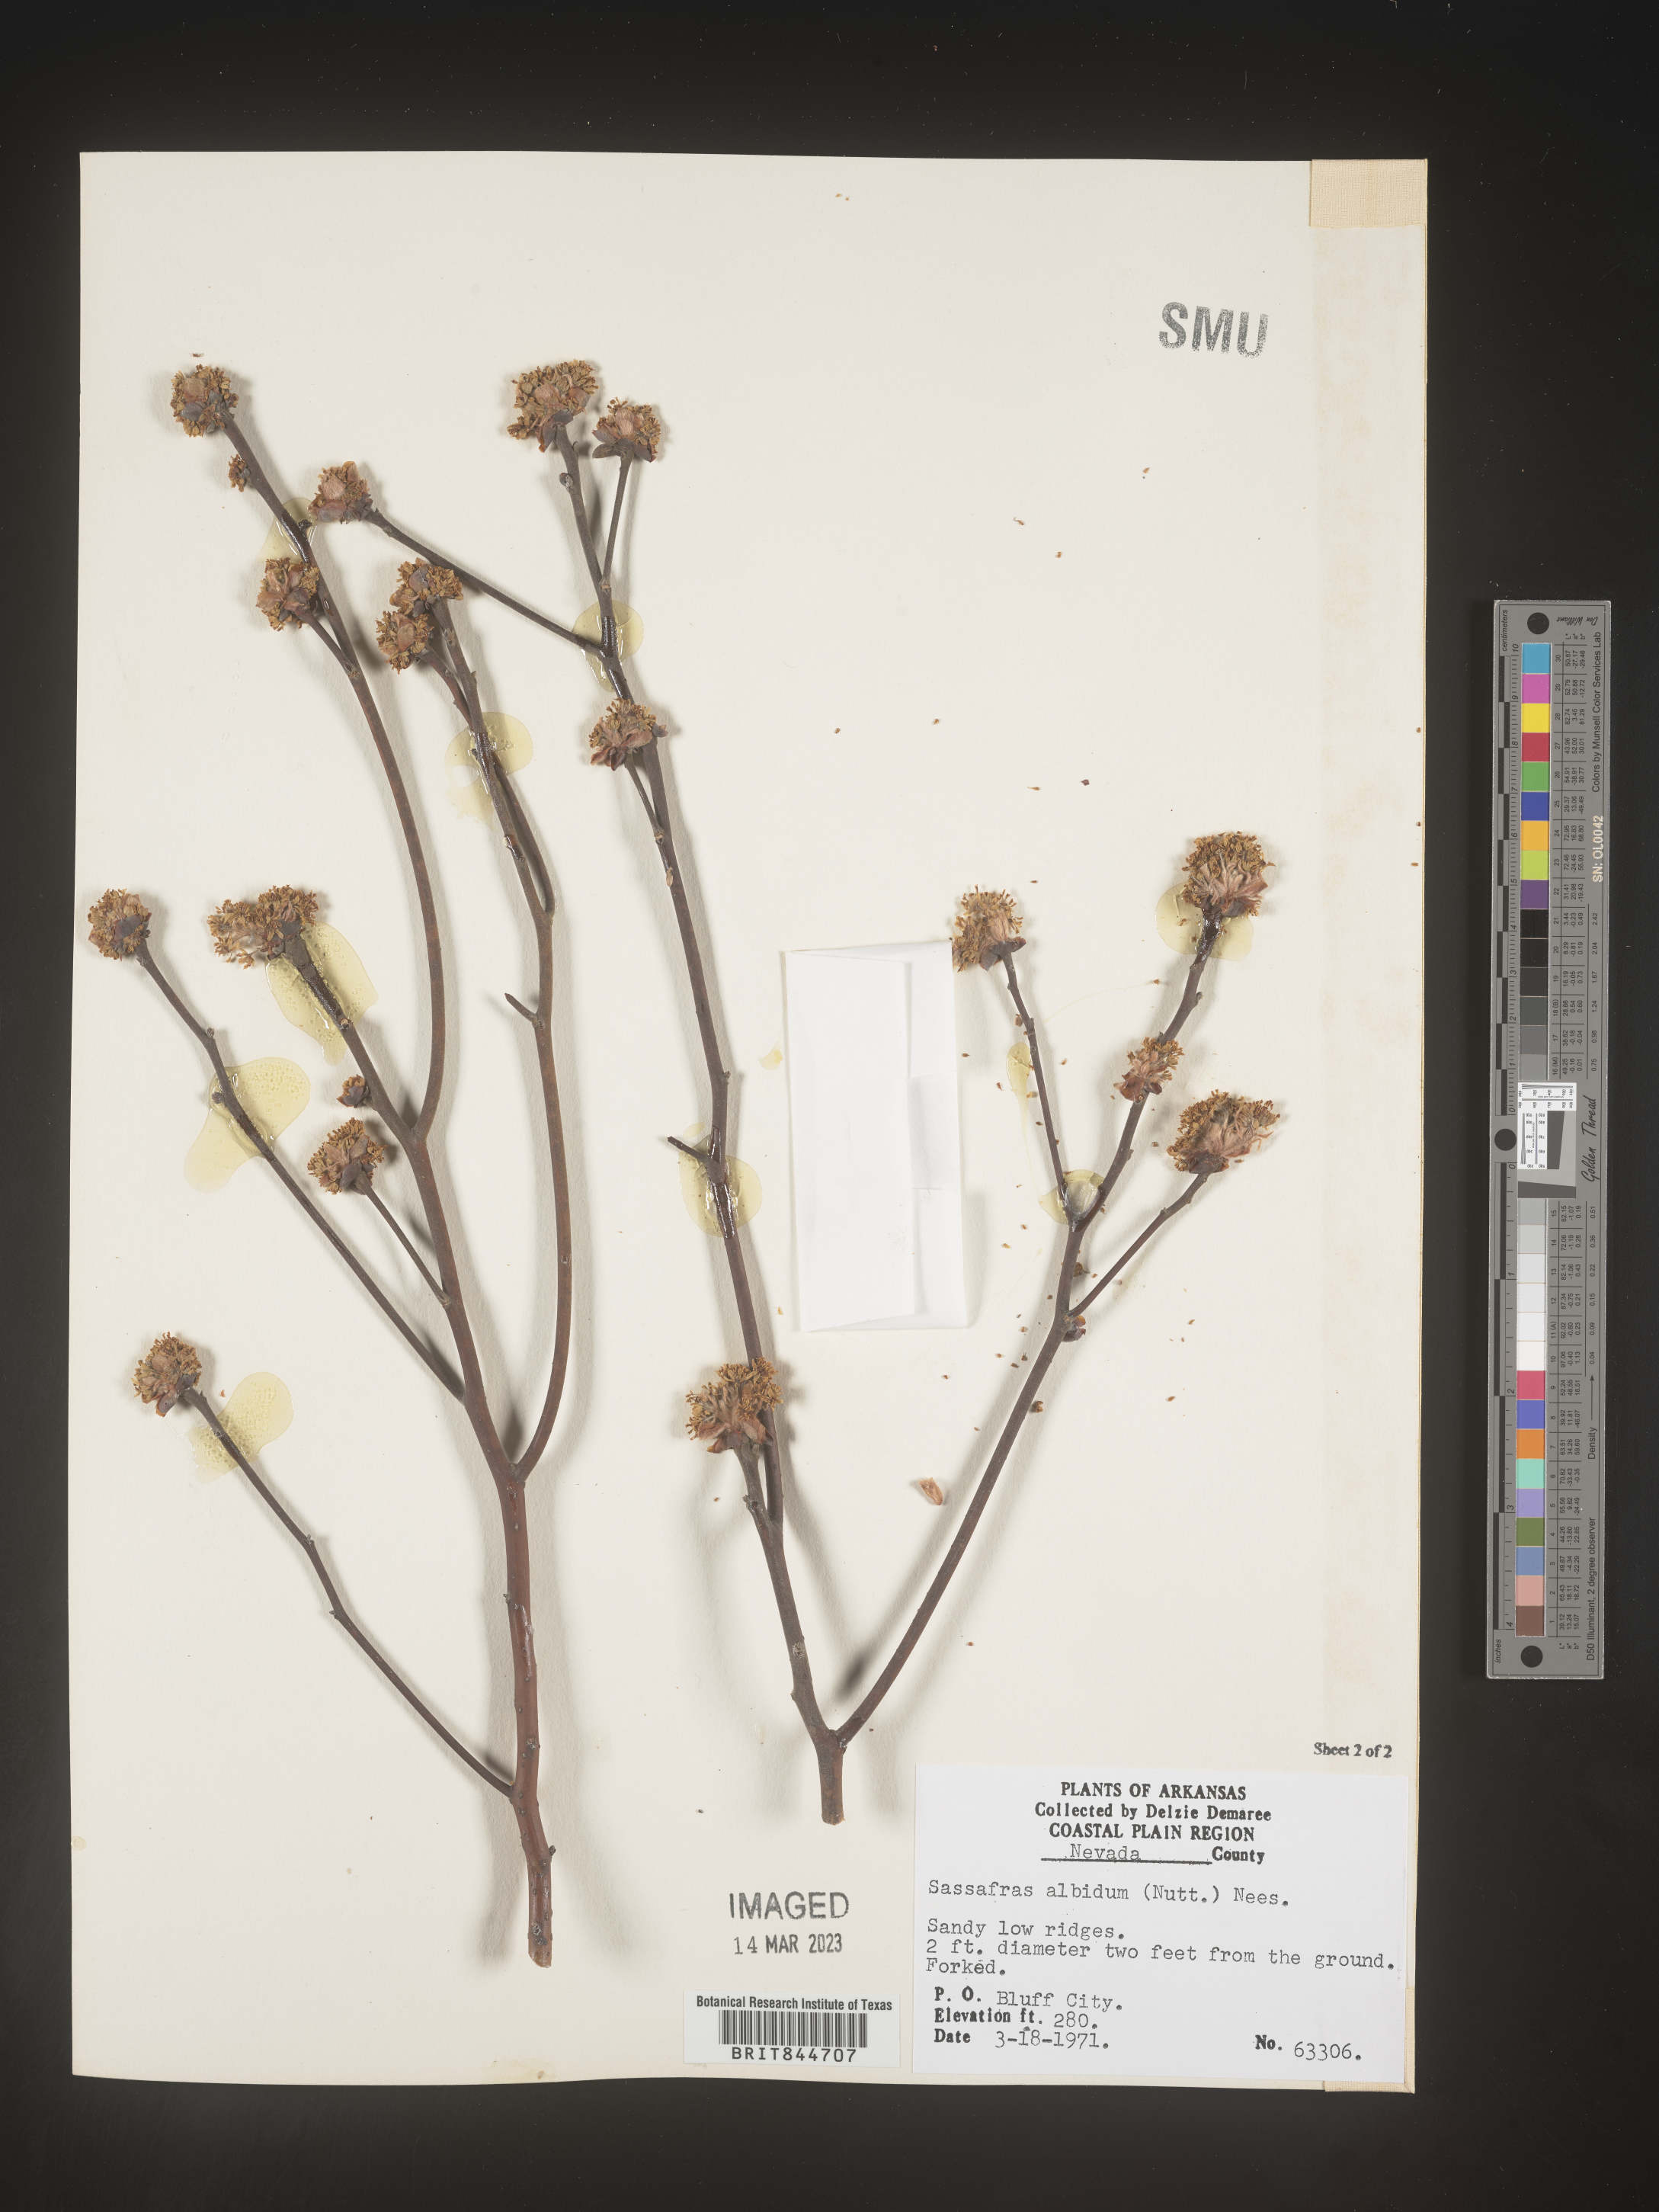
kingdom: Plantae
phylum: Tracheophyta
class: Magnoliopsida
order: Laurales
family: Lauraceae
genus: Sassafras
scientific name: Sassafras albidum
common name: Sassafras
